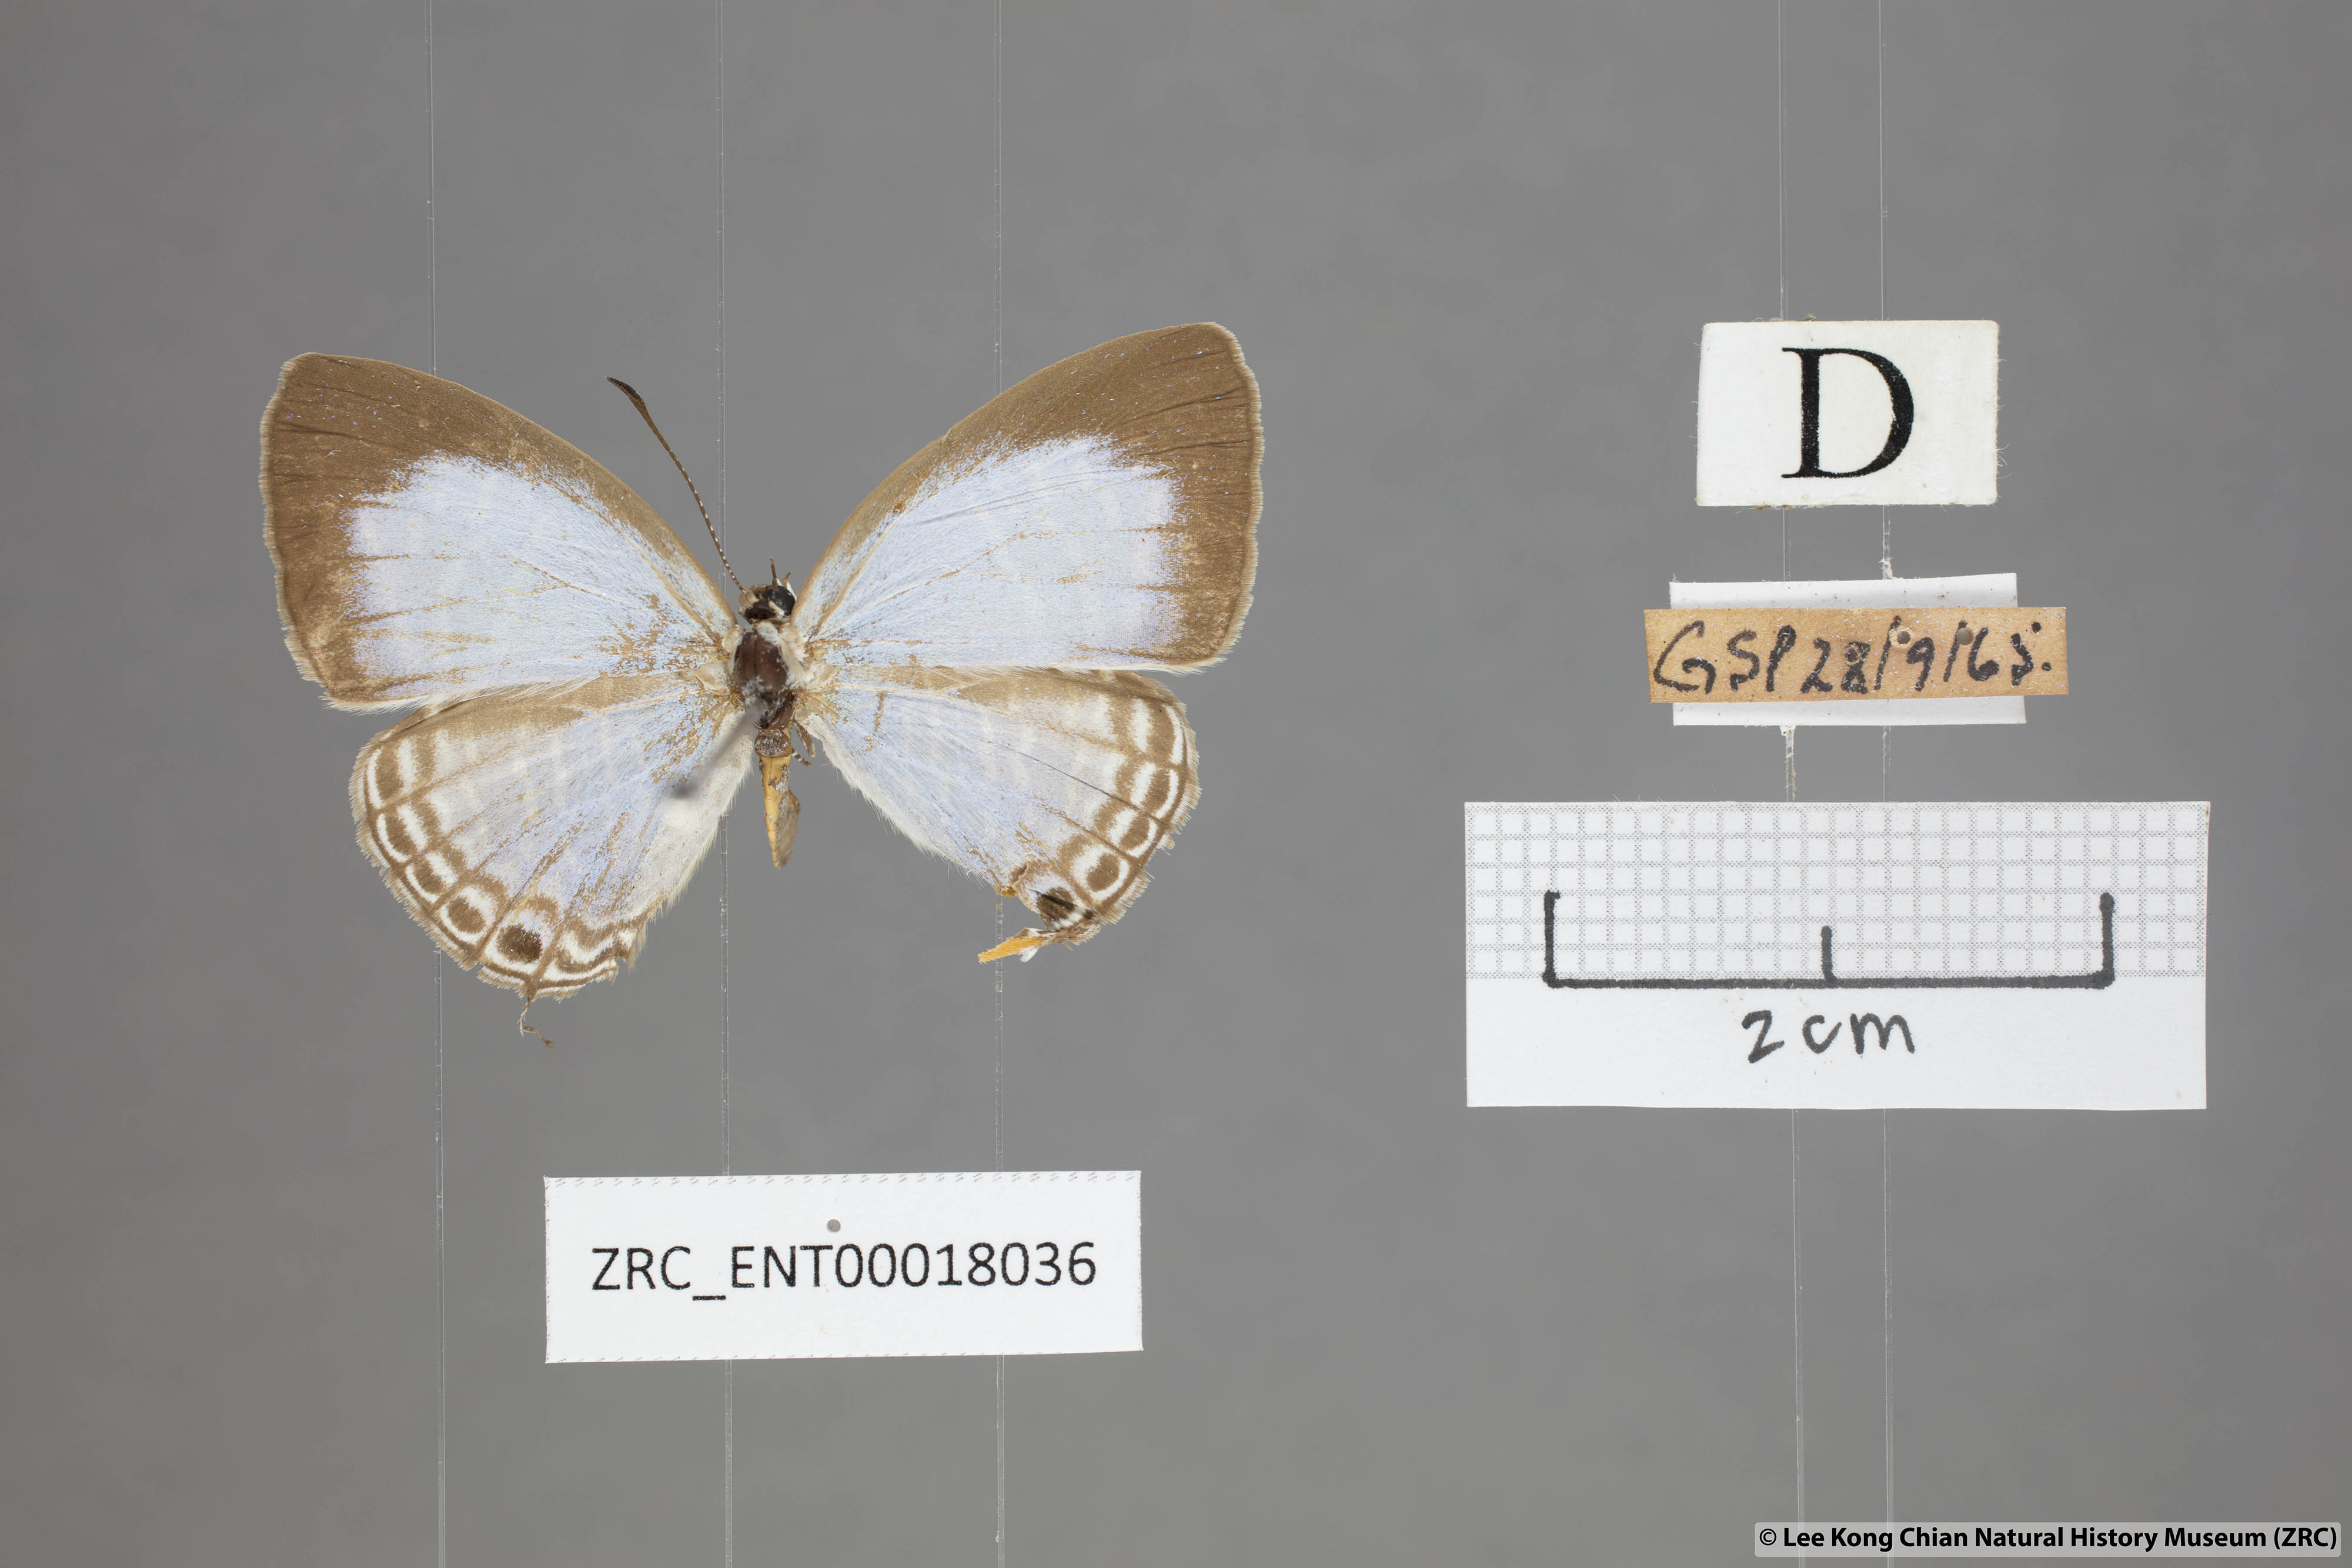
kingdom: Animalia
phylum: Arthropoda
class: Insecta
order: Lepidoptera
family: Lycaenidae
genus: Jamides
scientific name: Jamides alecto
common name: Metallic cerulean
